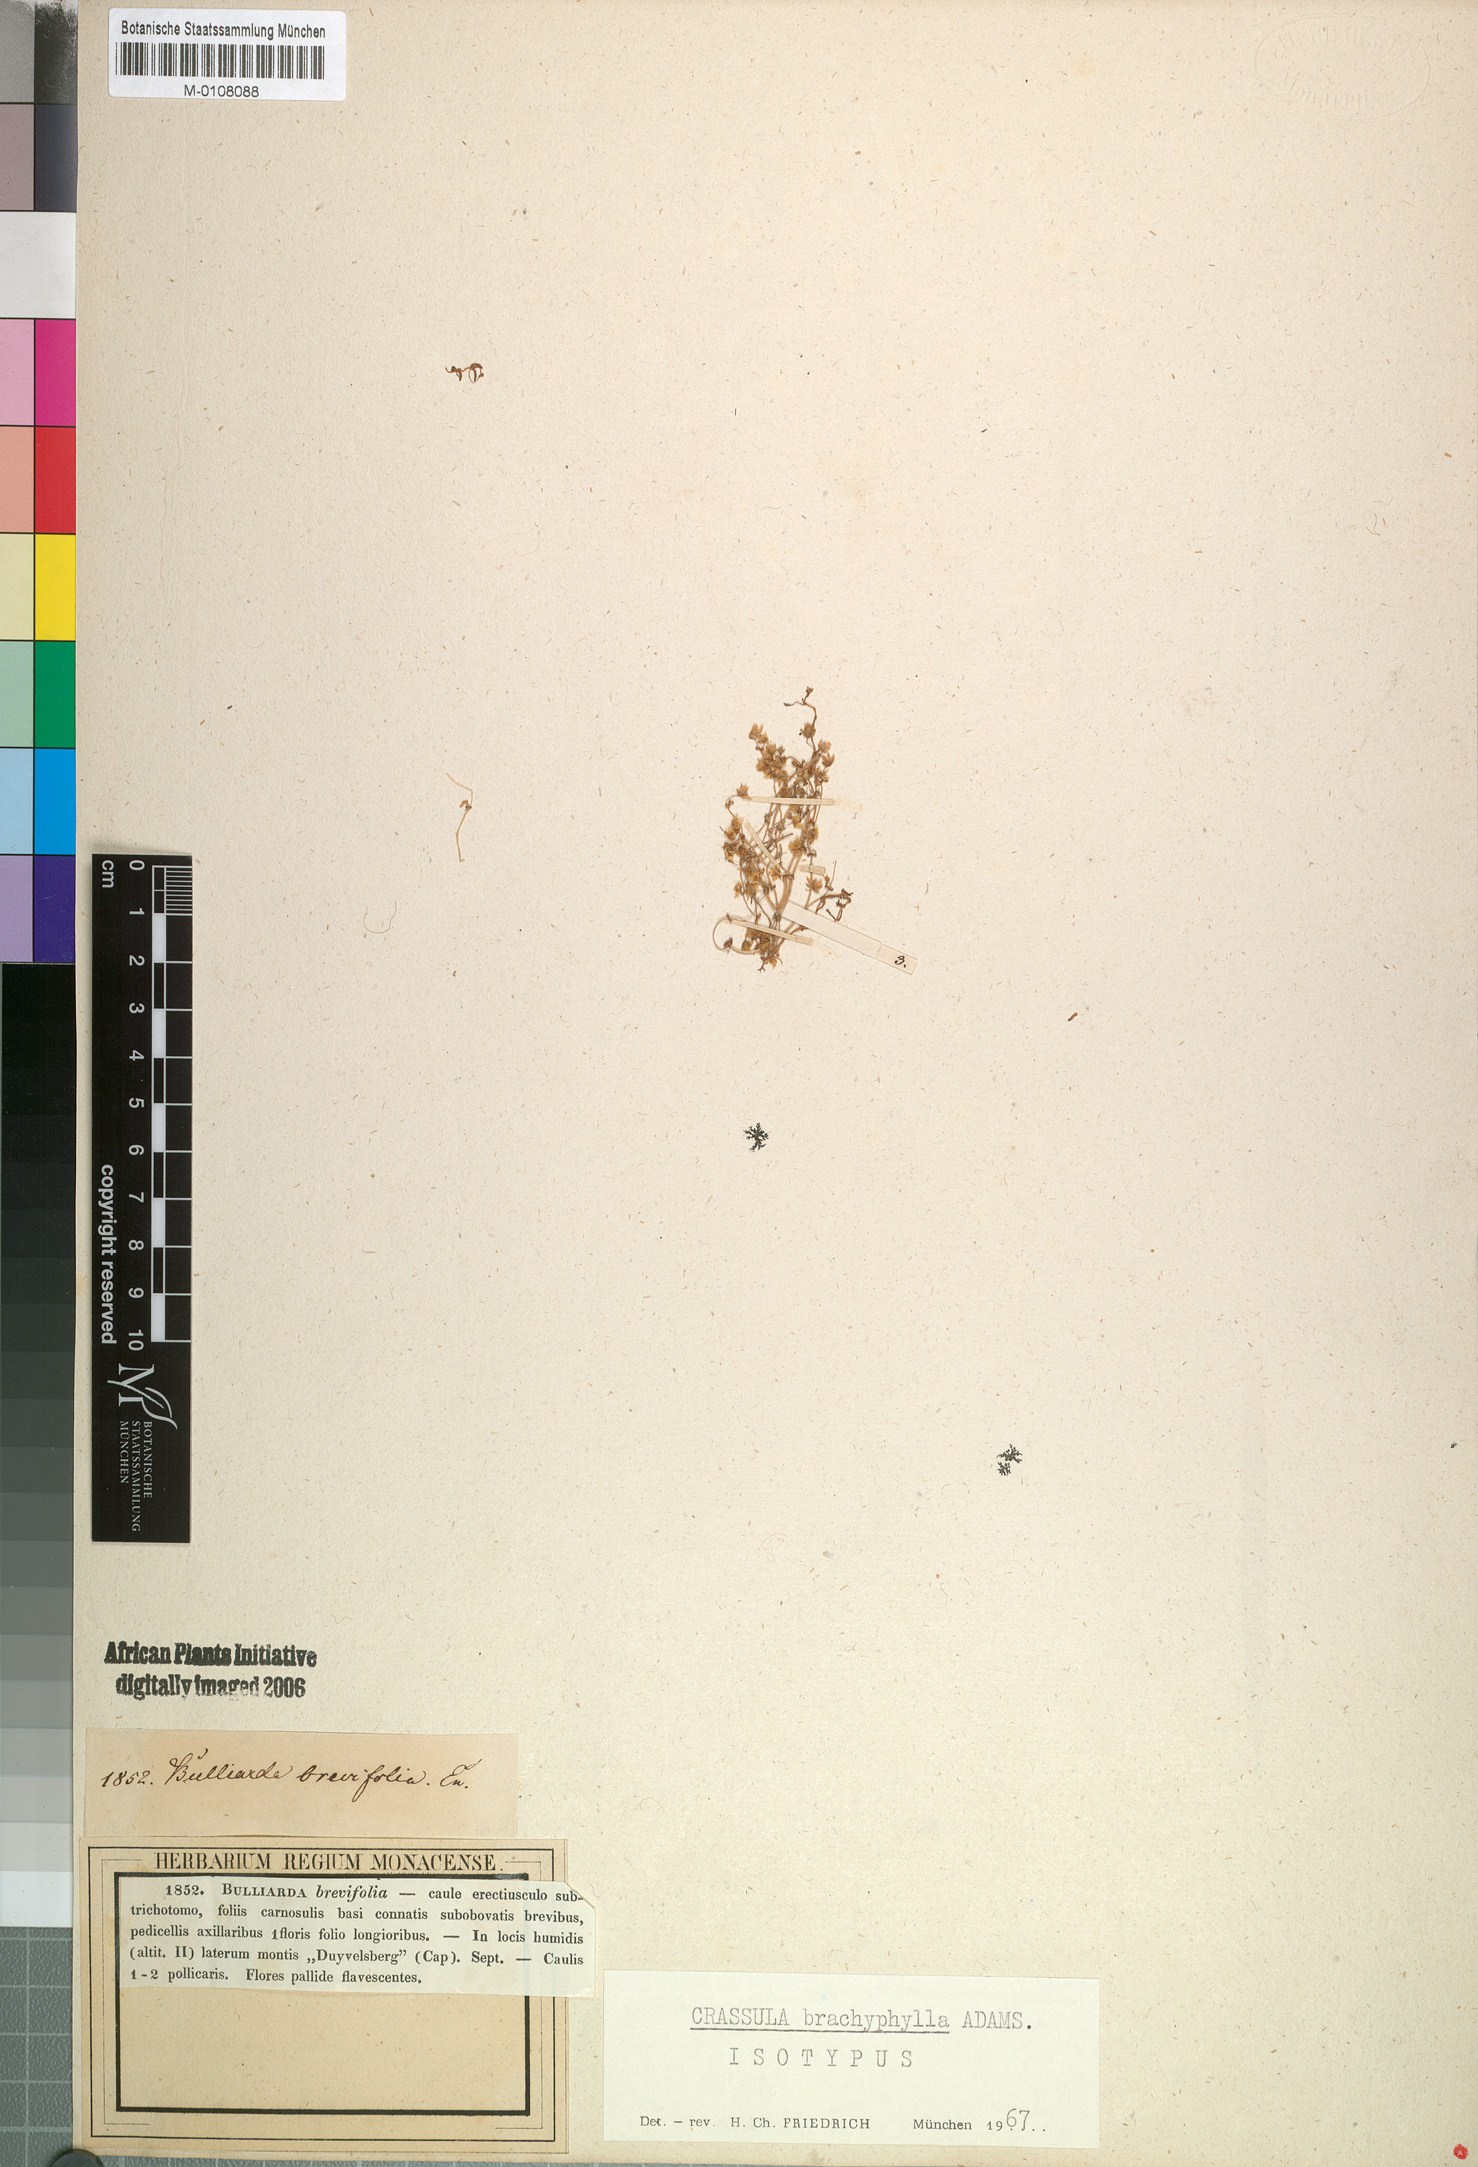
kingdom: Plantae
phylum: Tracheophyta
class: Magnoliopsida
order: Saxifragales
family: Crassulaceae
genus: Crassula
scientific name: Crassula decumbens
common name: Scilly pigmyweed
